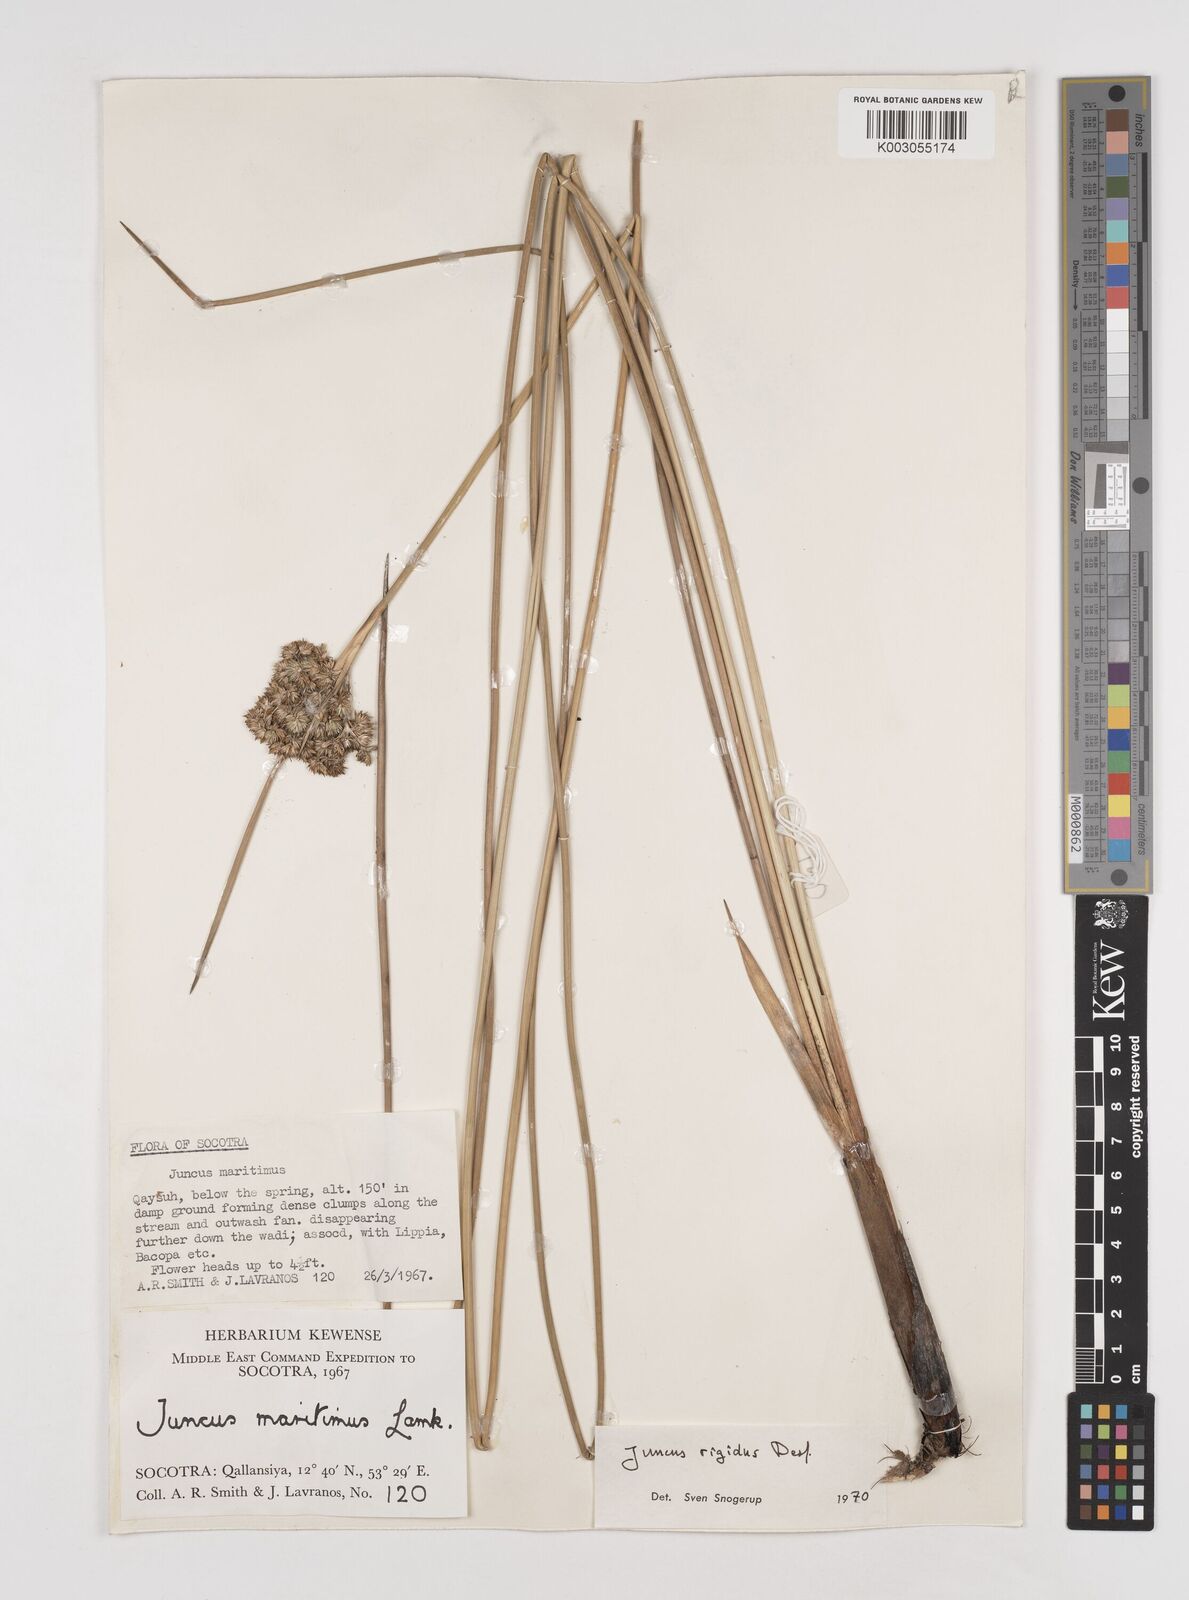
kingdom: Plantae
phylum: Tracheophyta
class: Liliopsida
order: Poales
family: Juncaceae
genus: Juncus
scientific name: Juncus rigidus
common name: Hard sea rush
